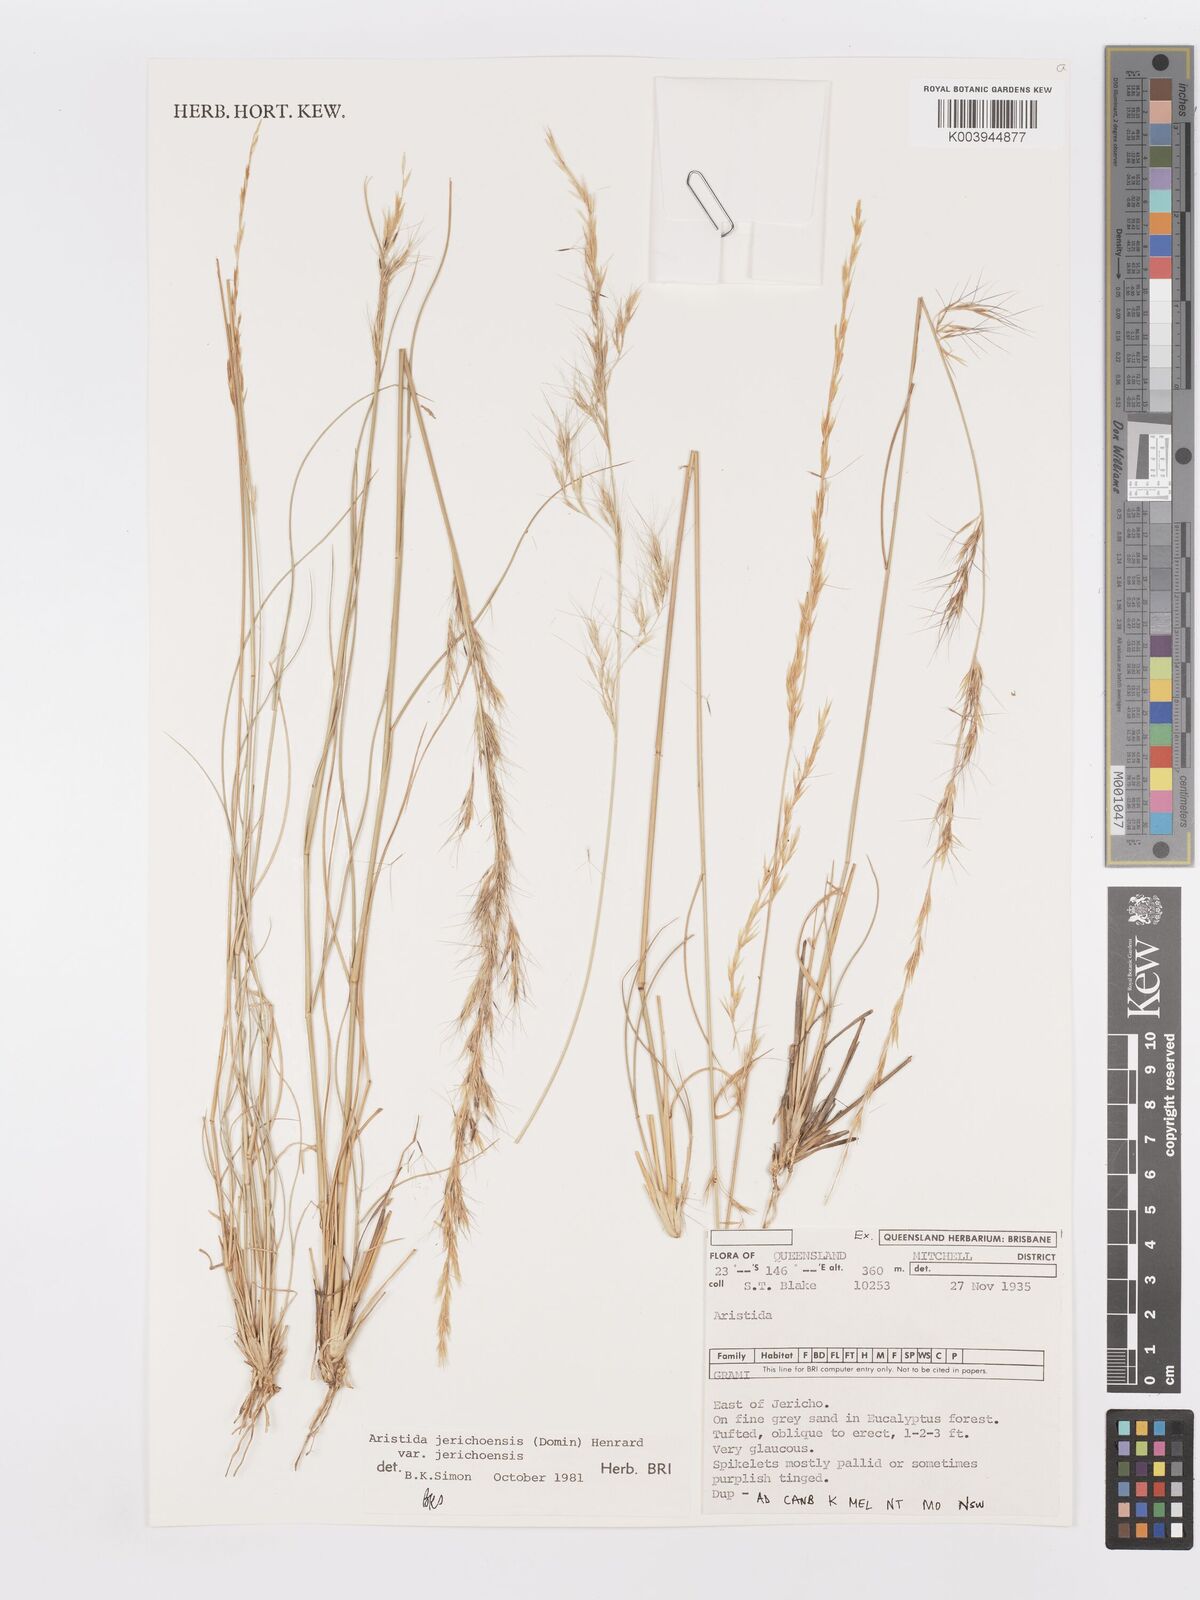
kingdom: Plantae
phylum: Tracheophyta
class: Liliopsida
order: Poales
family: Poaceae
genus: Aristida
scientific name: Aristida jerichoensis
